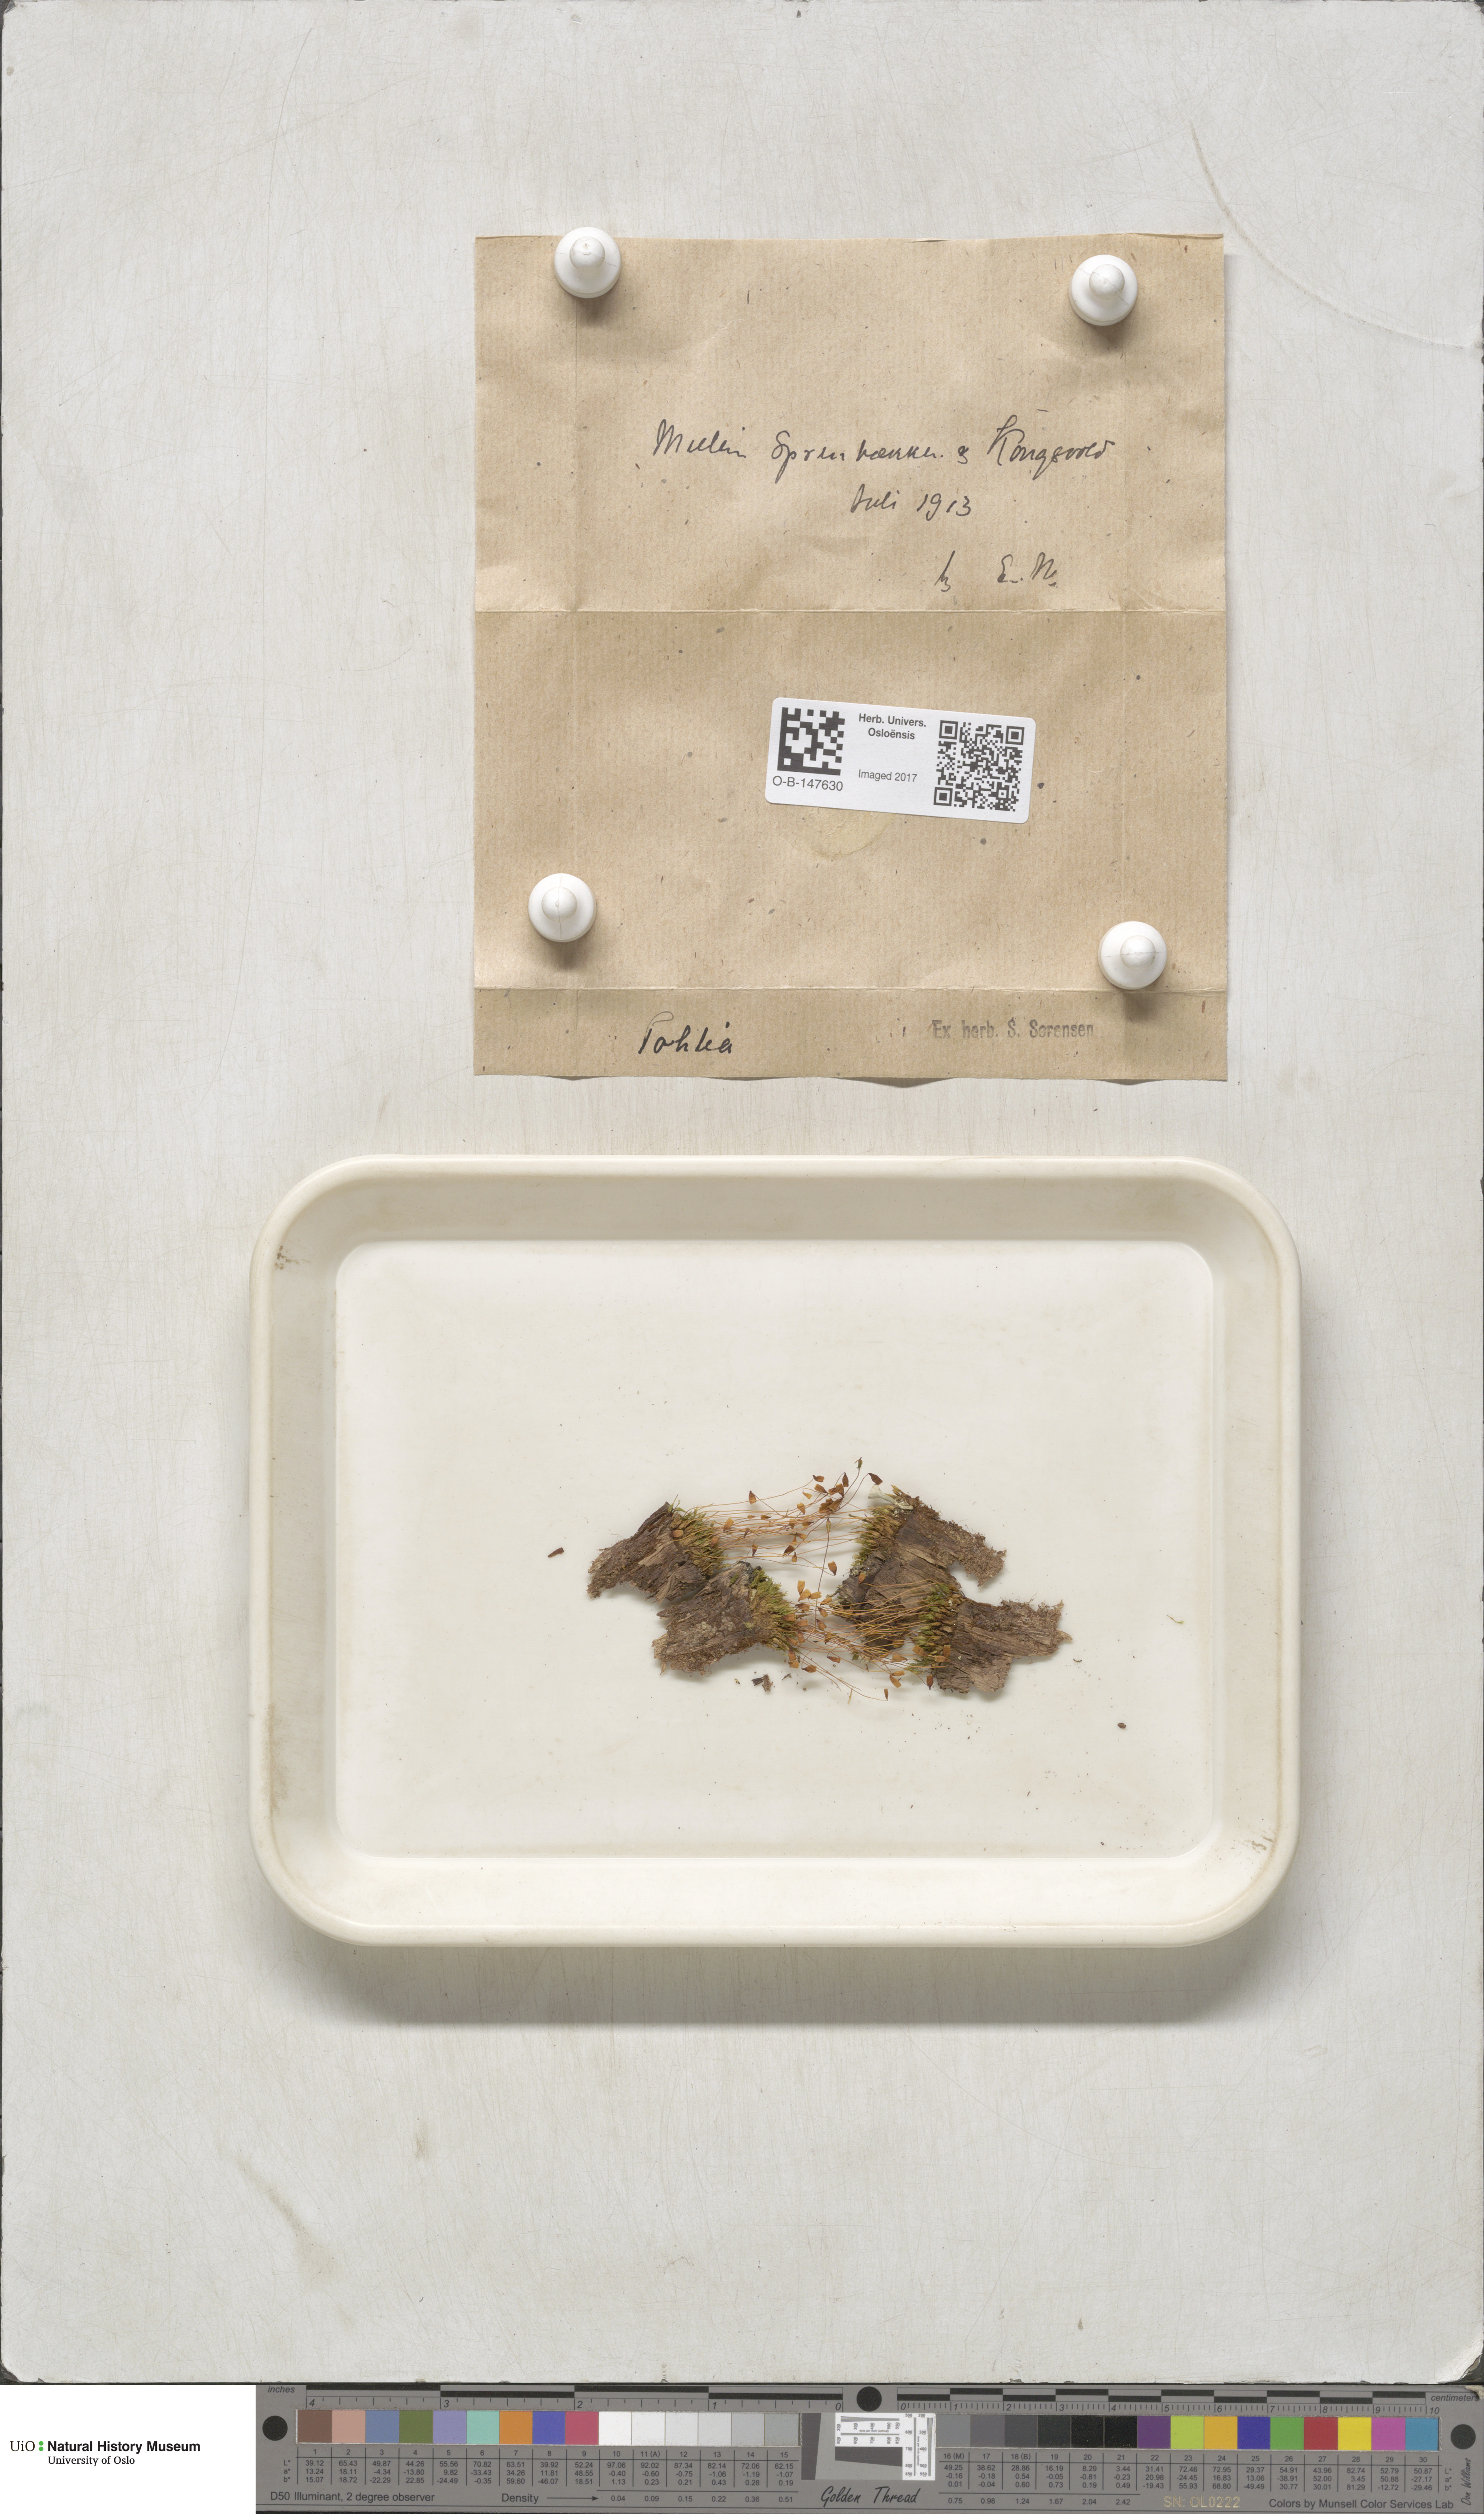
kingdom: Plantae
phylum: Bryophyta
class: Bryopsida
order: Bryales
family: Mniaceae
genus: Pohlia
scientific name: Pohlia
